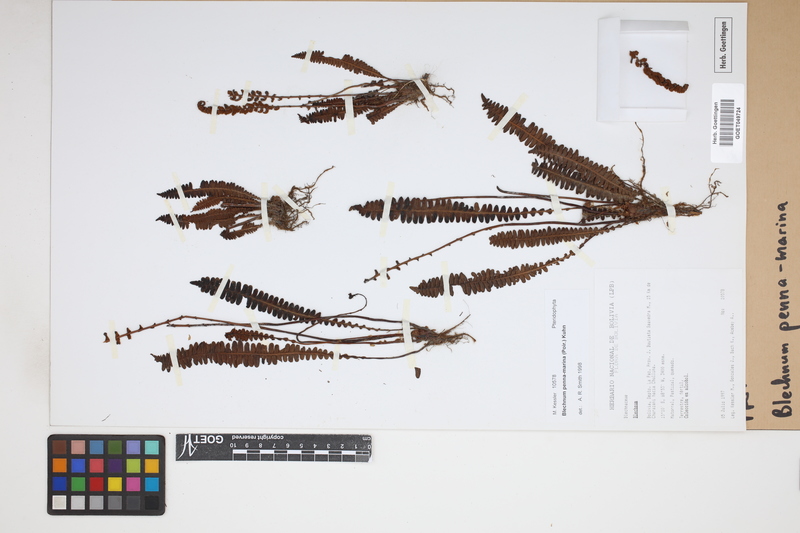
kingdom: Plantae
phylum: Tracheophyta
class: Polypodiopsida
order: Polypodiales
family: Blechnaceae
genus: Austroblechnum
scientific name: Austroblechnum penna-marina
